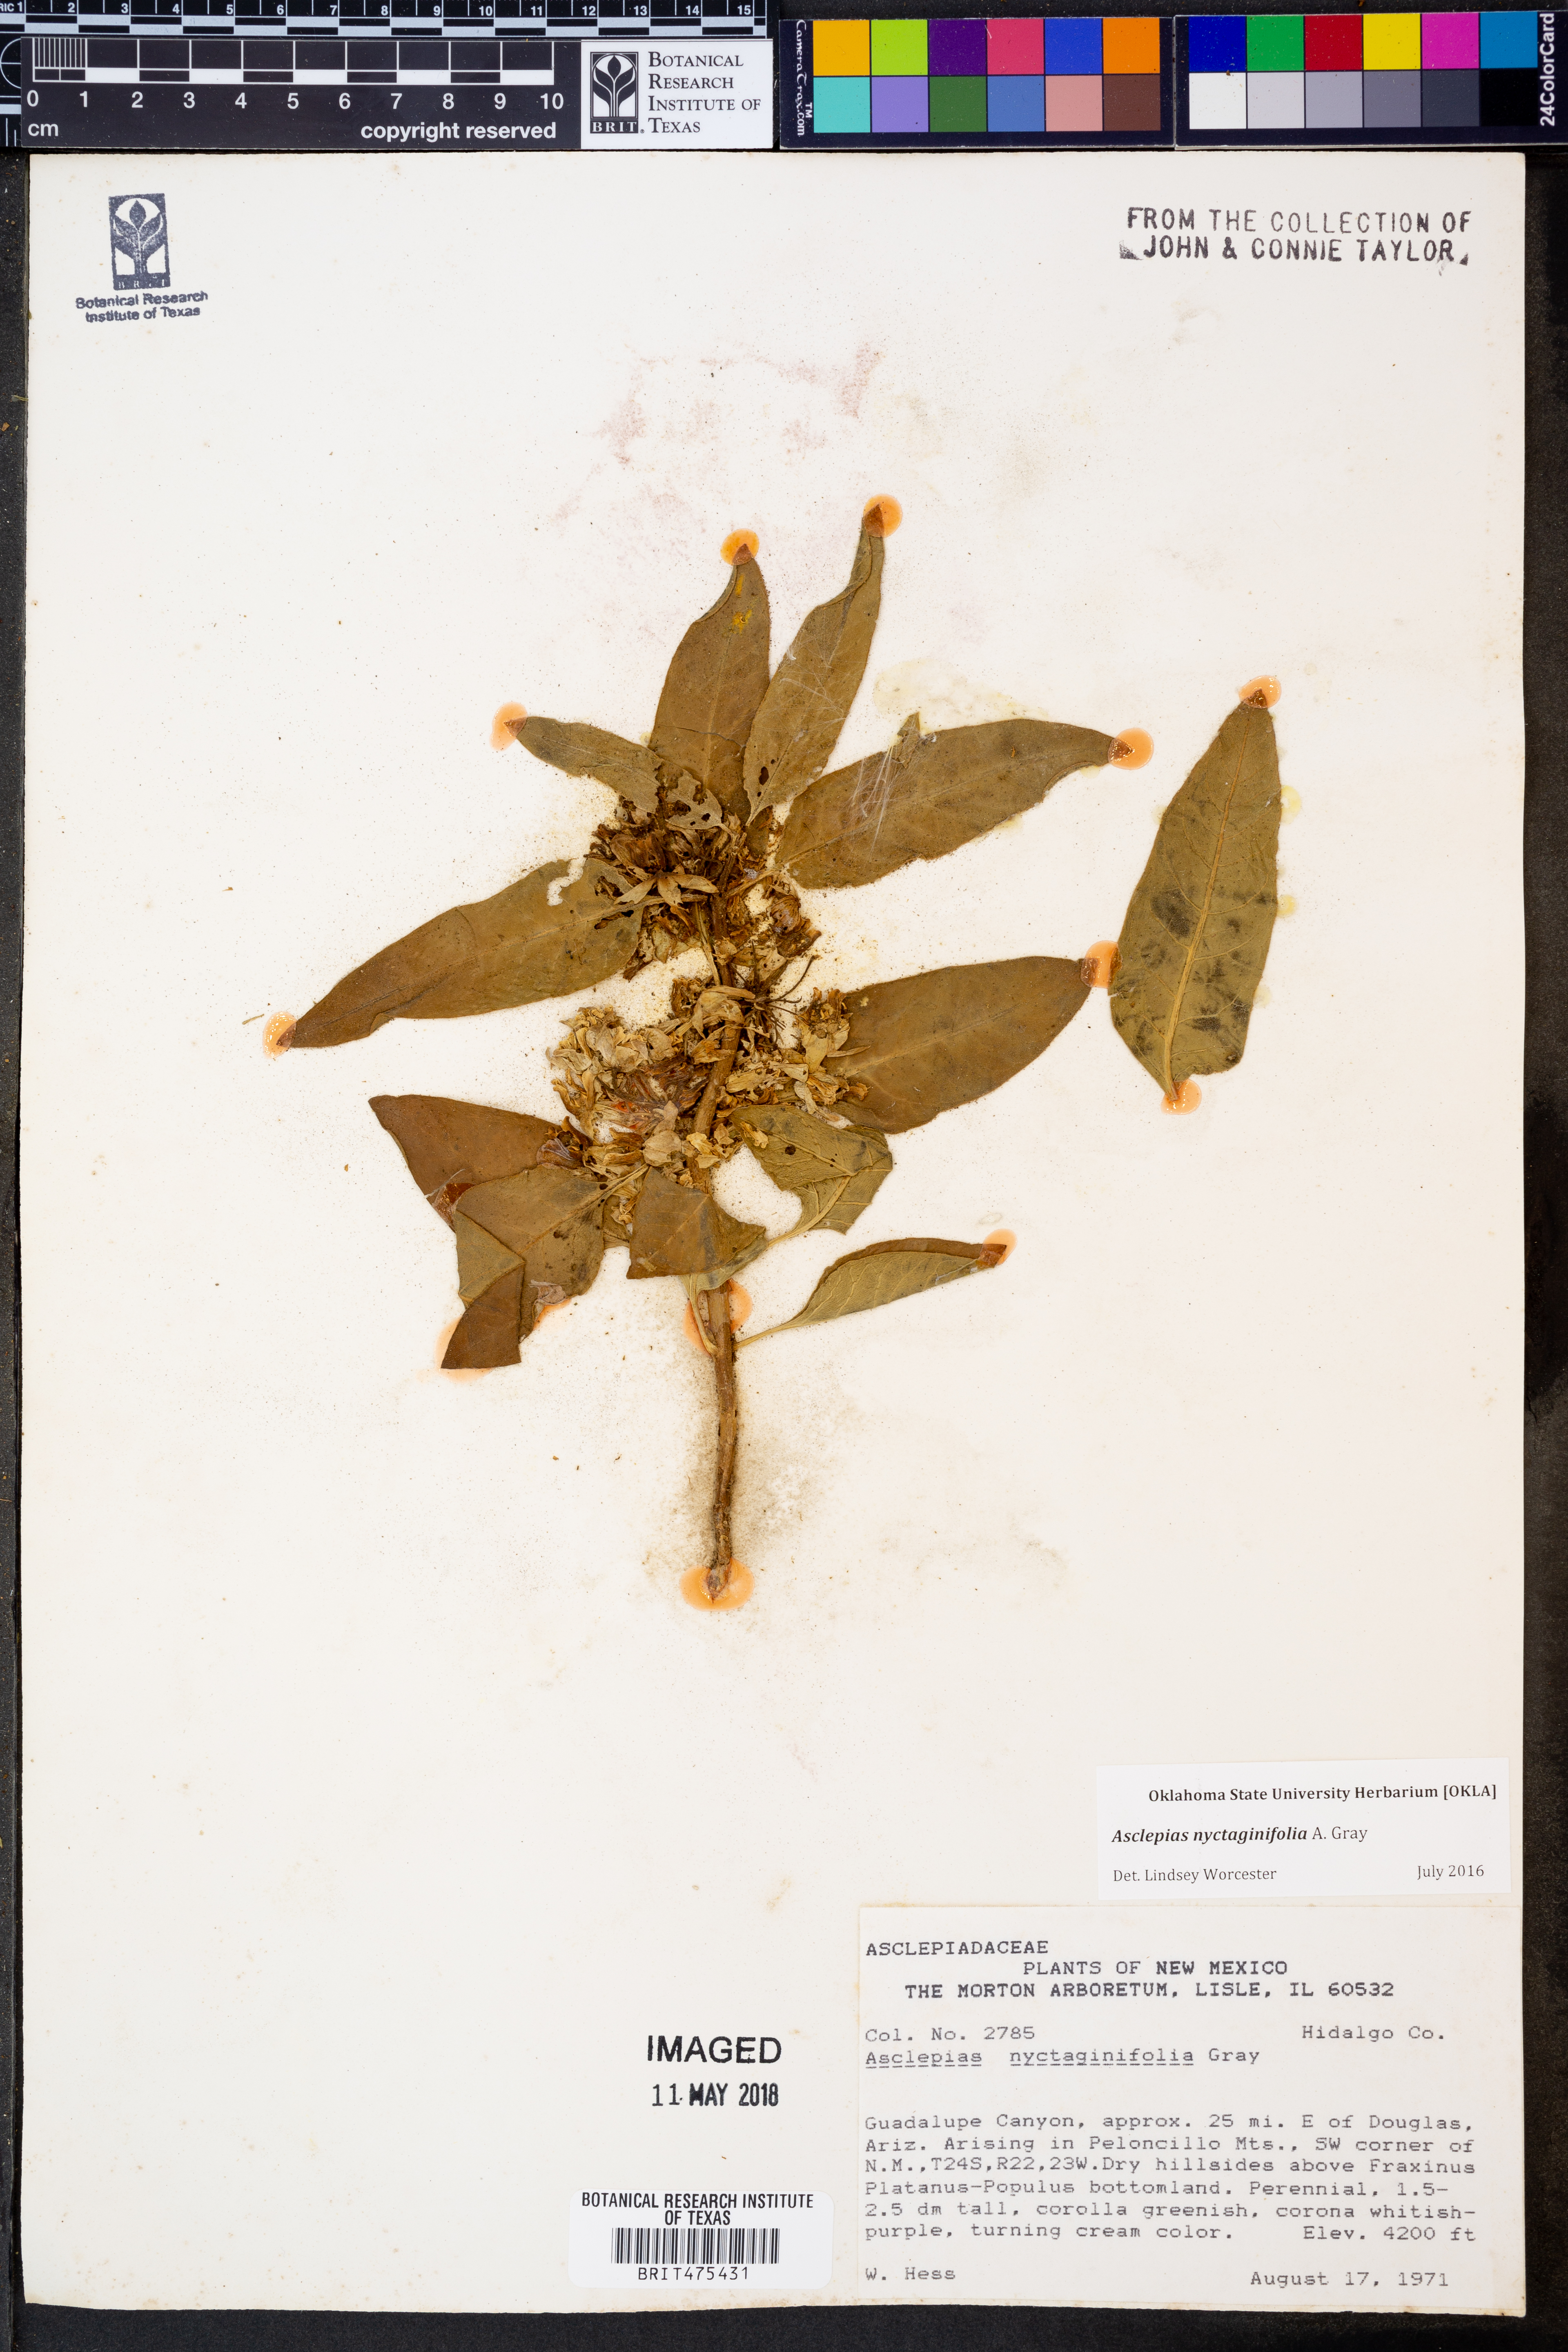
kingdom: Plantae
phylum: Tracheophyta
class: Magnoliopsida
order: Gentianales
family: Apocynaceae
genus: Asclepias
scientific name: Asclepias nyctaginifolia
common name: Mojave milkweed
